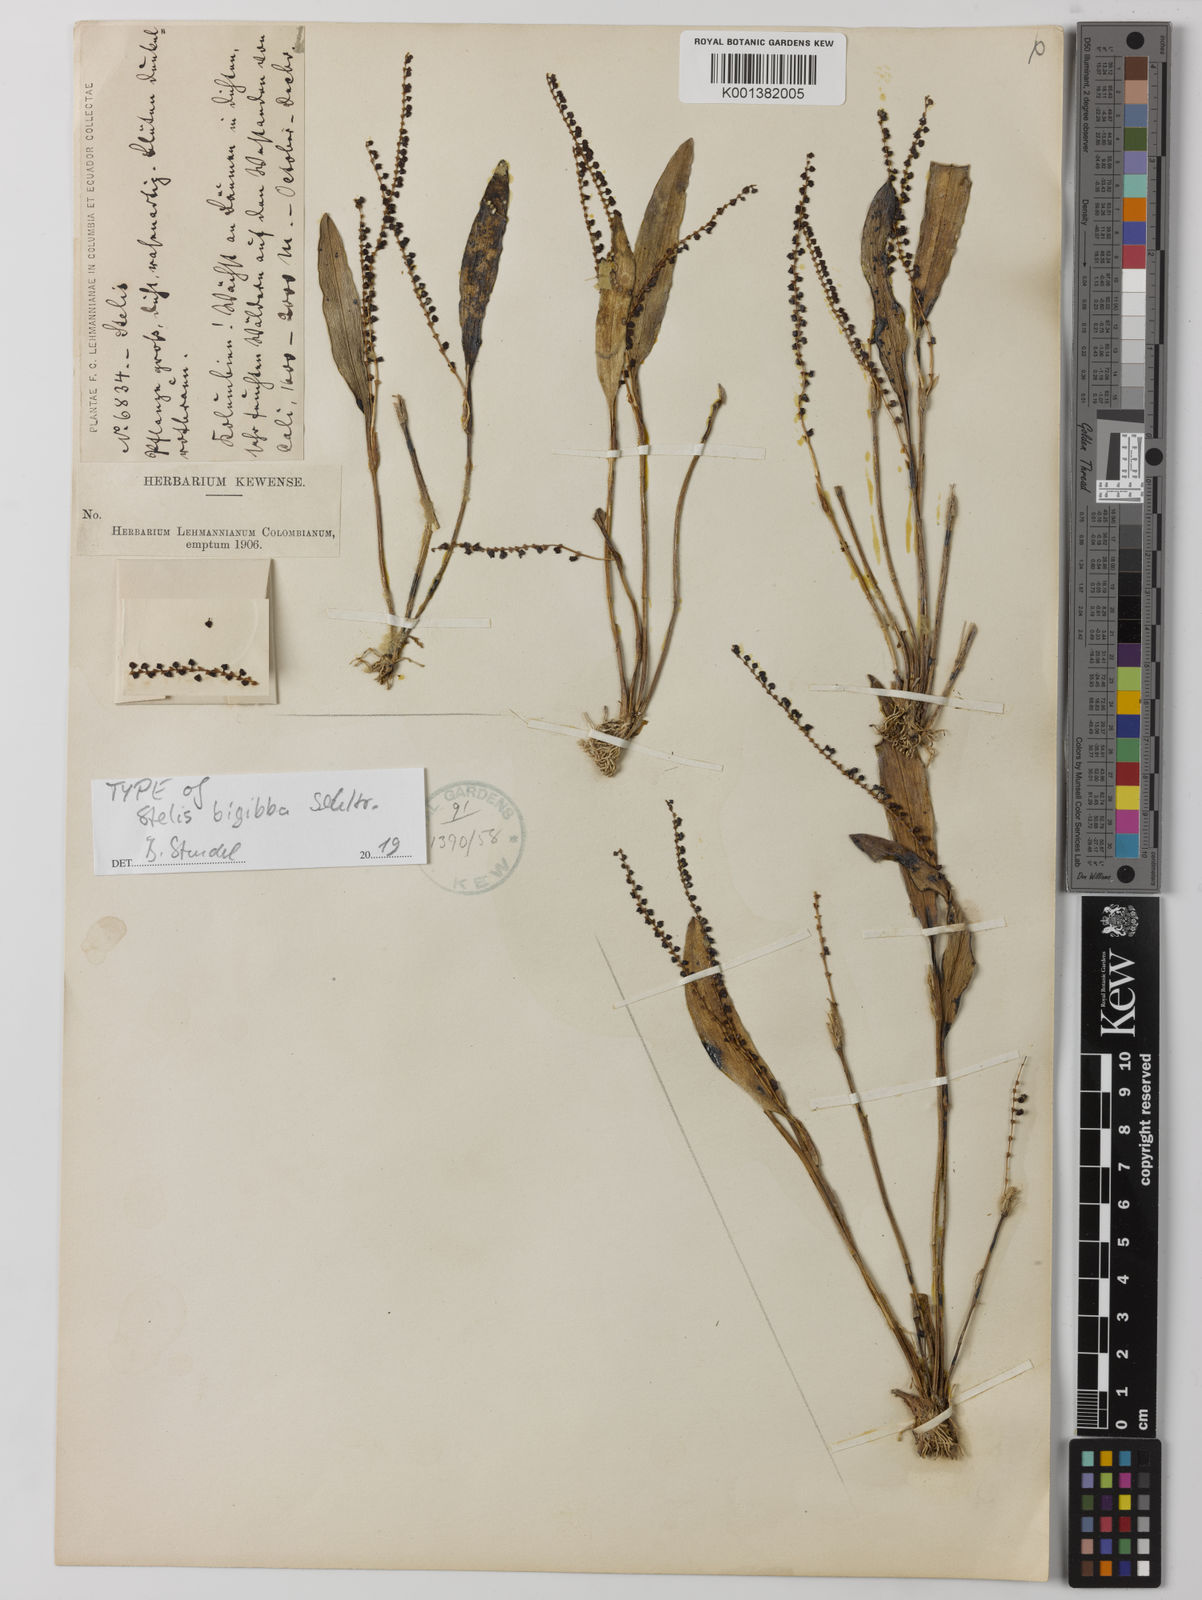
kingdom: Plantae
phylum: Tracheophyta
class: Liliopsida
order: Asparagales
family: Orchidaceae
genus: Stelis
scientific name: Stelis bigibba
